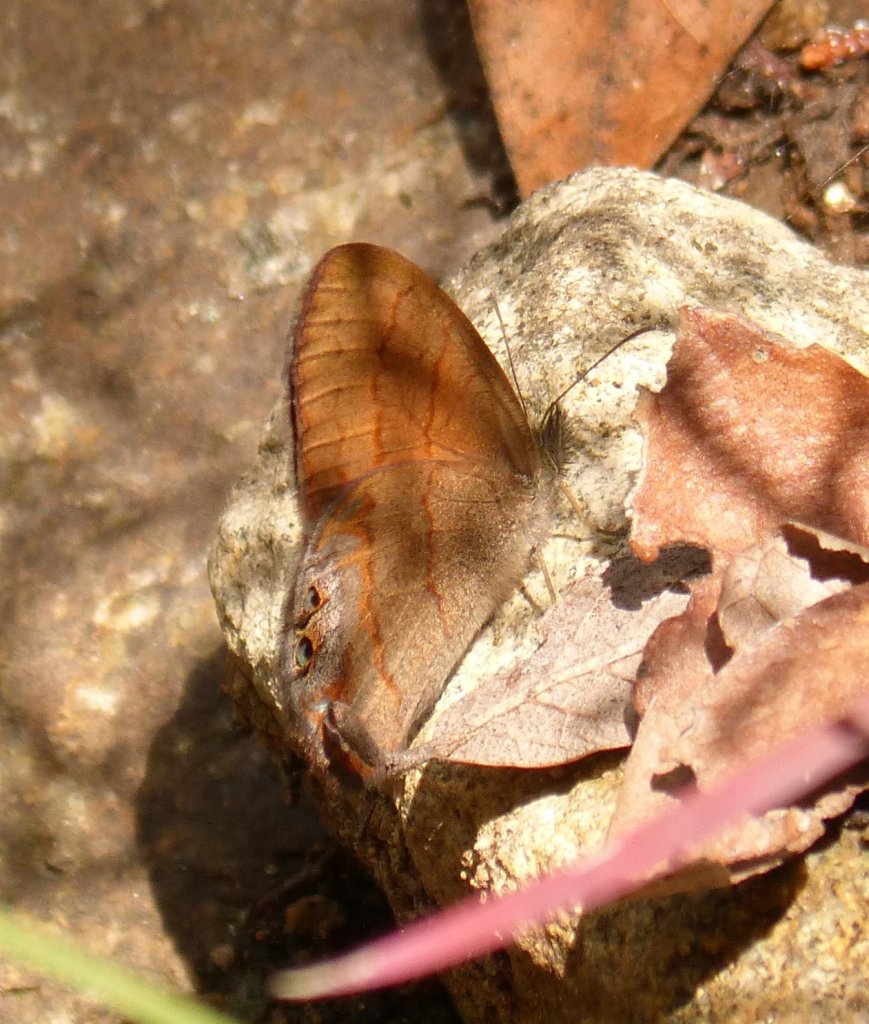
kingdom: Animalia
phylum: Arthropoda
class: Insecta
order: Lepidoptera
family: Nymphalidae
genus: Euptychia
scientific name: Euptychia pyracmon
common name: Nabokov's Satyr
